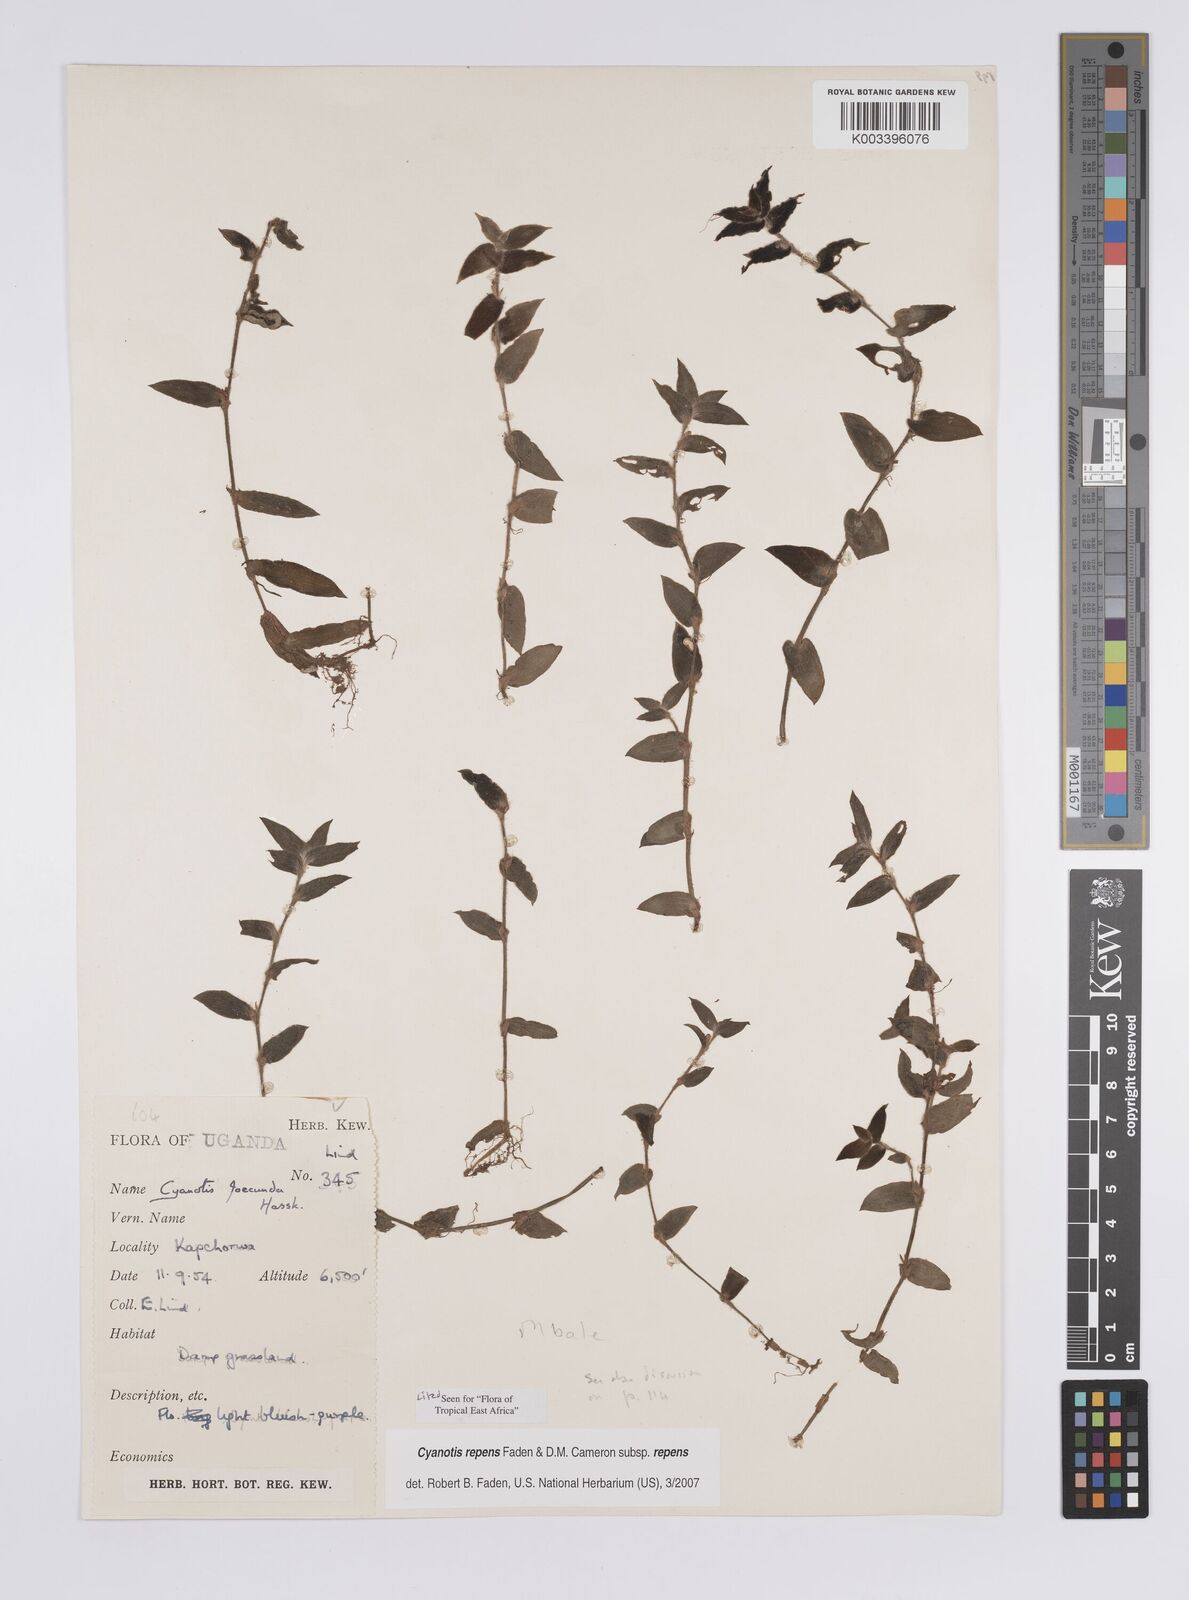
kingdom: Plantae
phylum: Tracheophyta
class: Liliopsida
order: Commelinales
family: Commelinaceae
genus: Cyanotis
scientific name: Cyanotis repens
